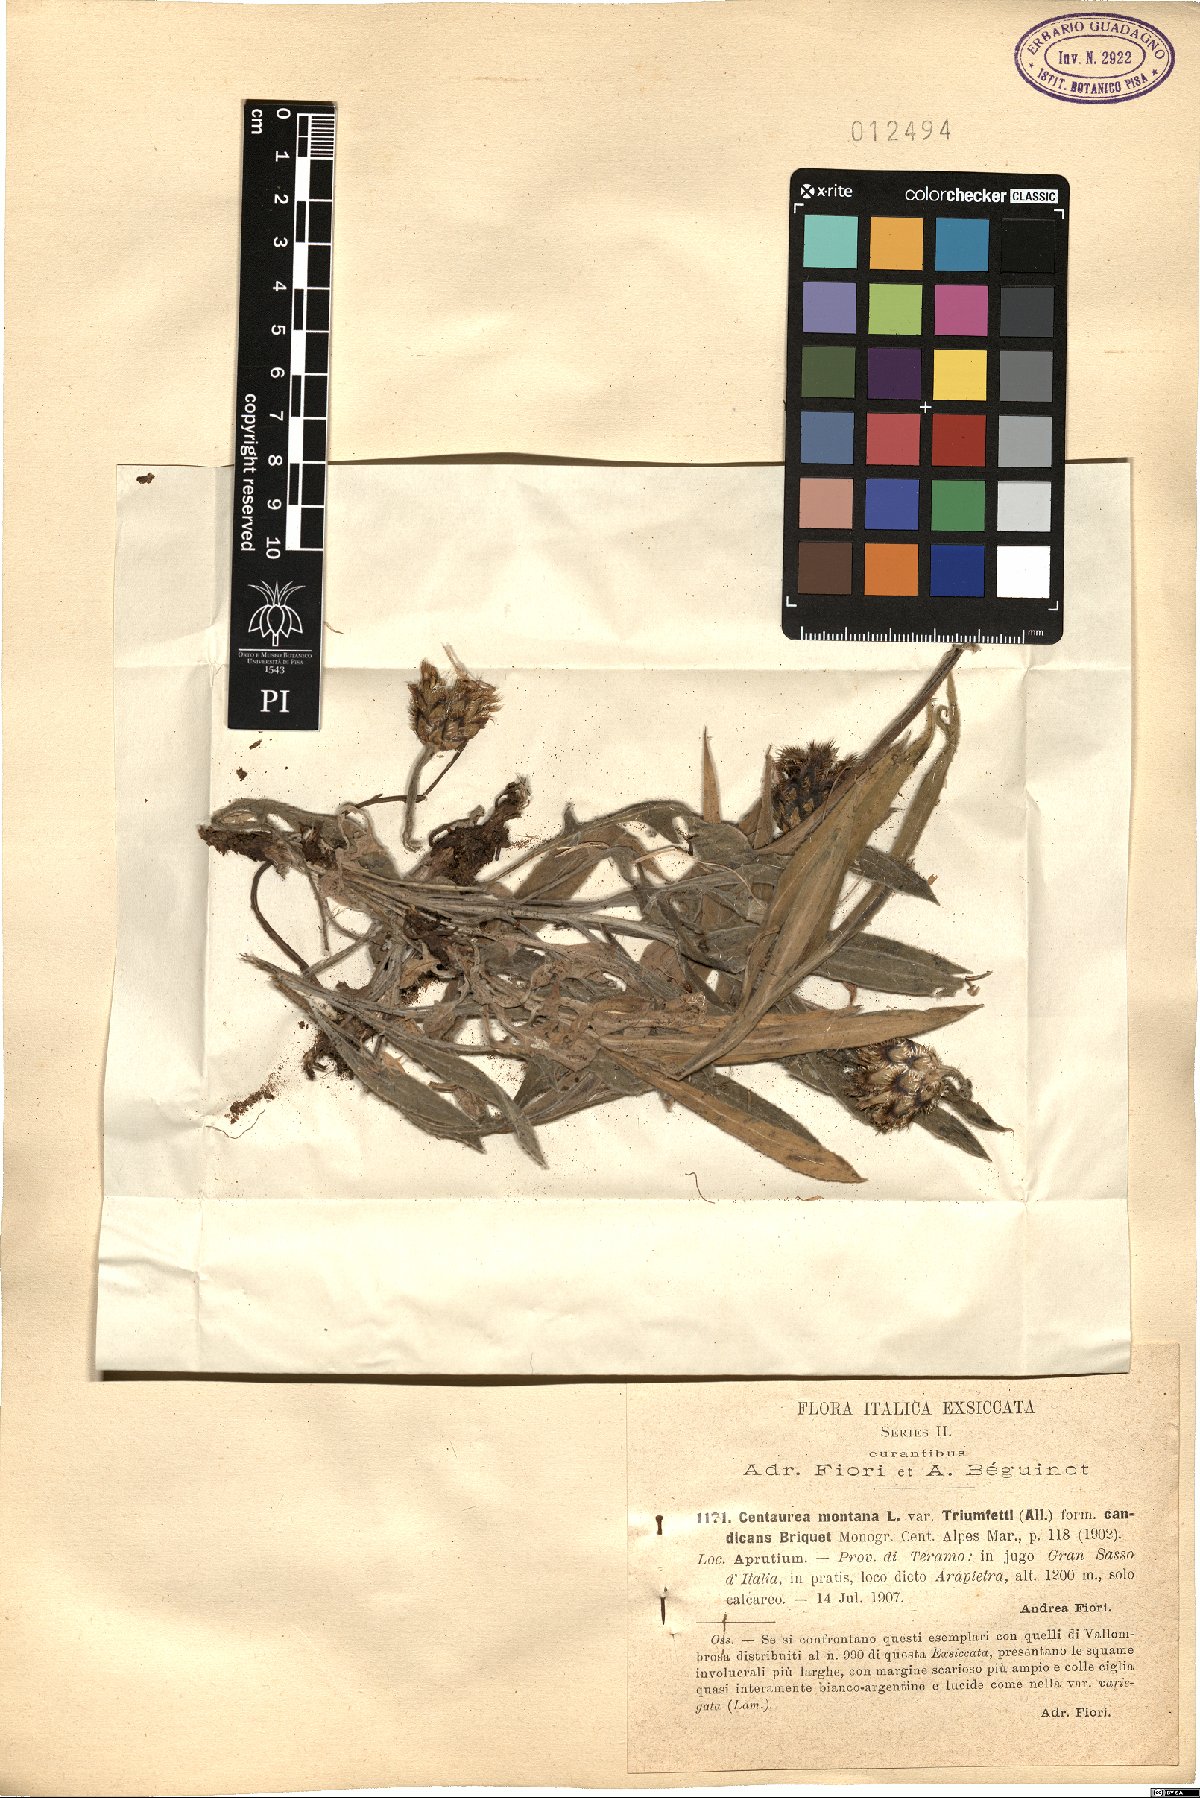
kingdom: Plantae
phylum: Tracheophyta
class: Magnoliopsida
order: Asterales
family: Asteraceae
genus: Centaurea
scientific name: Centaurea montana
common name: Perennial cornflower
